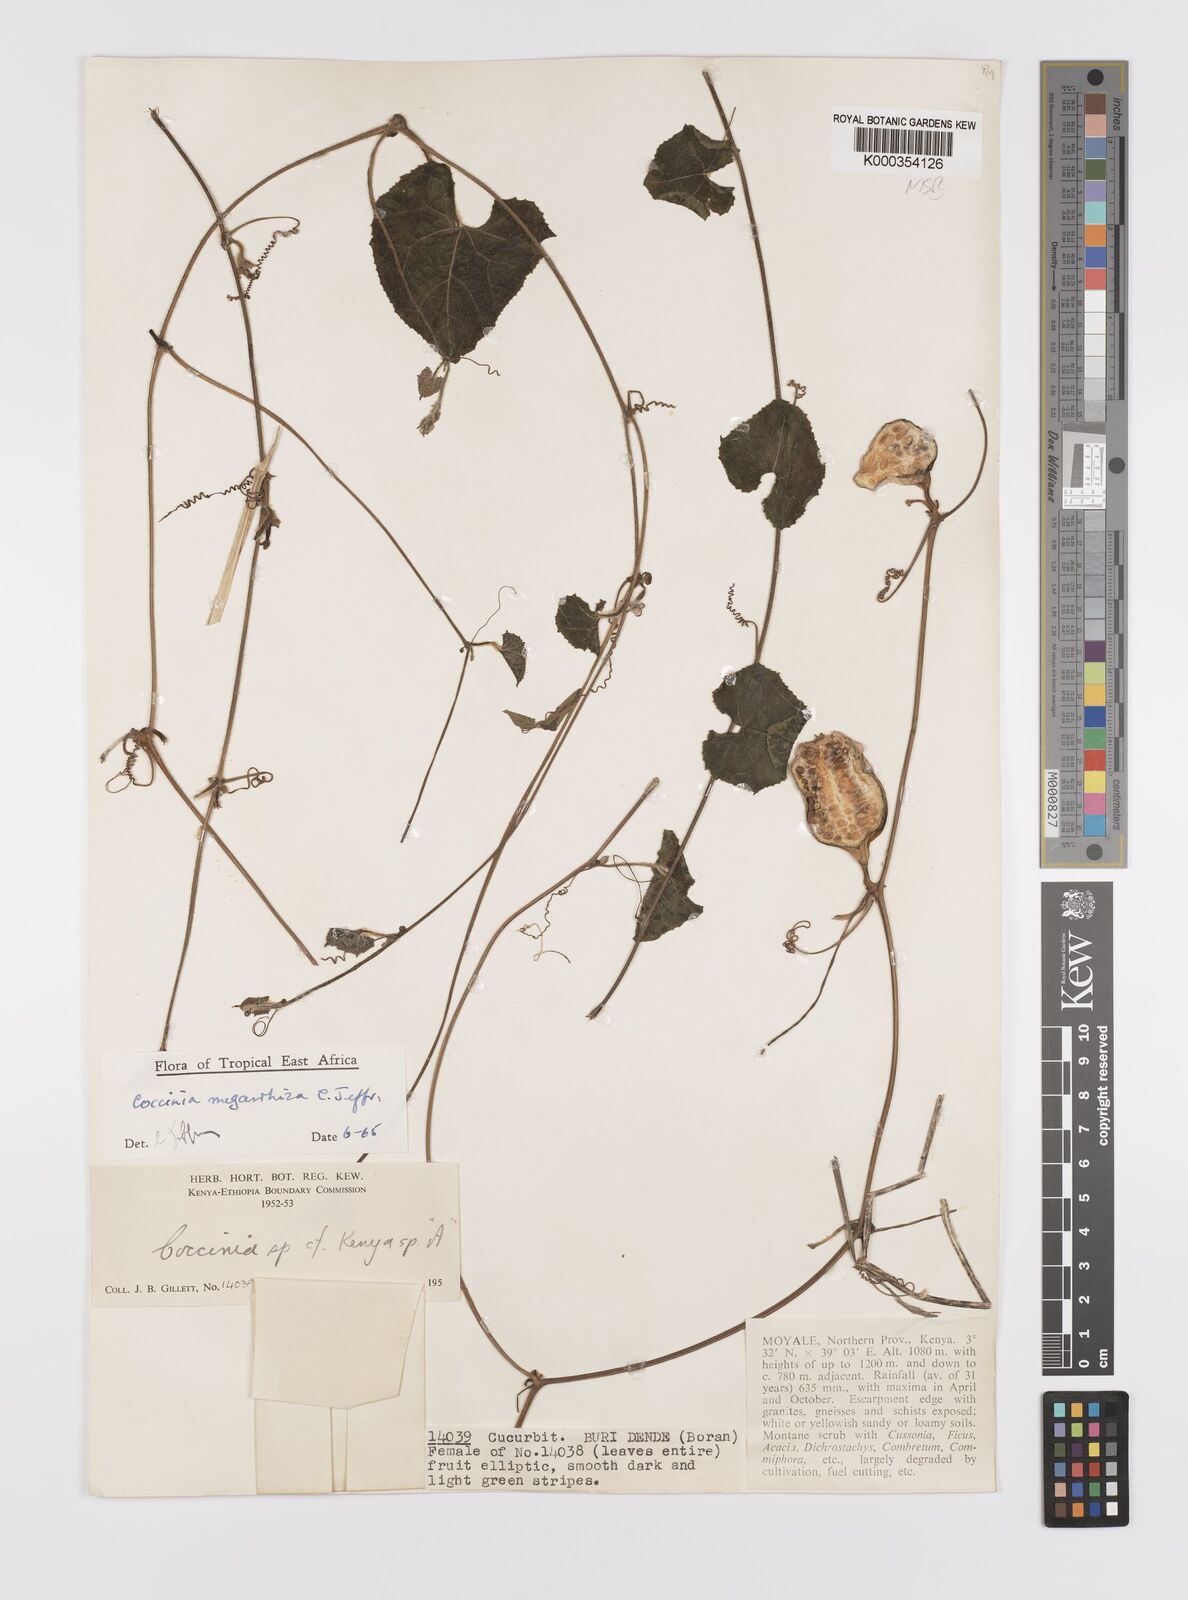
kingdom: Plantae
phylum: Tracheophyta
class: Magnoliopsida
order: Cucurbitales
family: Cucurbitaceae
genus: Coccinia
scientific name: Coccinia megarrhiza
